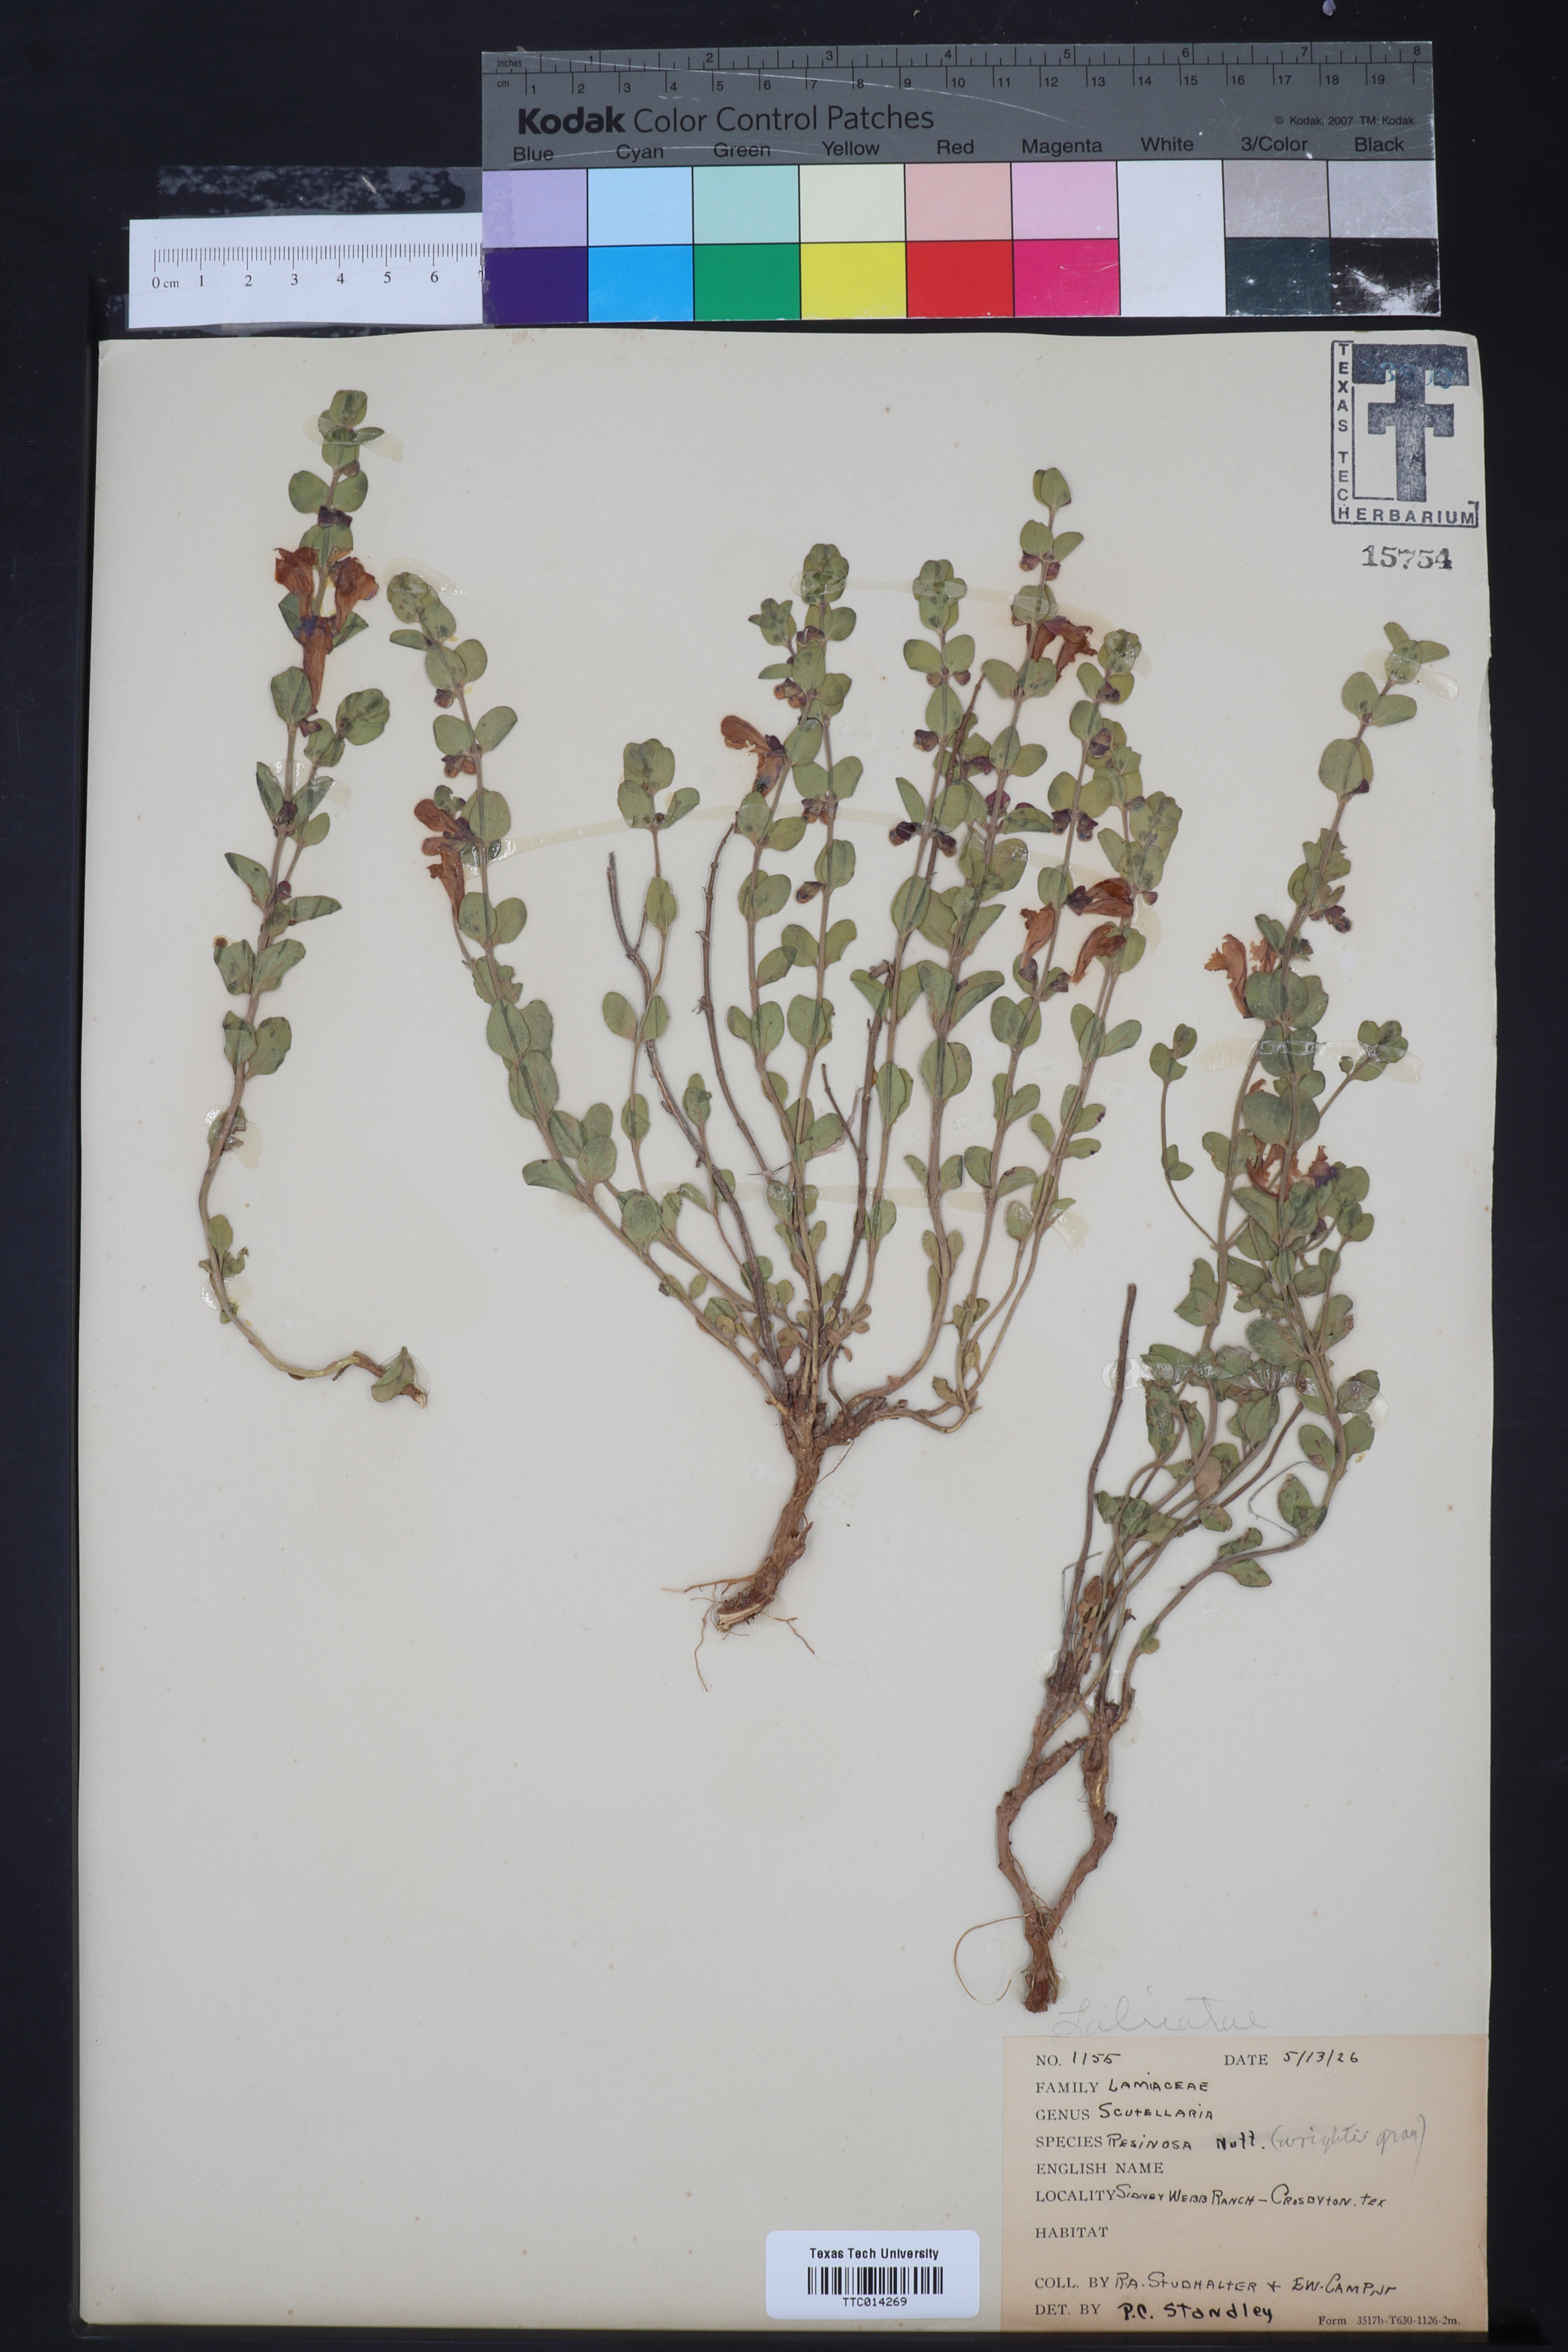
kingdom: Plantae
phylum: Tracheophyta
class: Magnoliopsida
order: Lamiales
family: Lamiaceae
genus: Scutellaria
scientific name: Scutellaria resinosa
